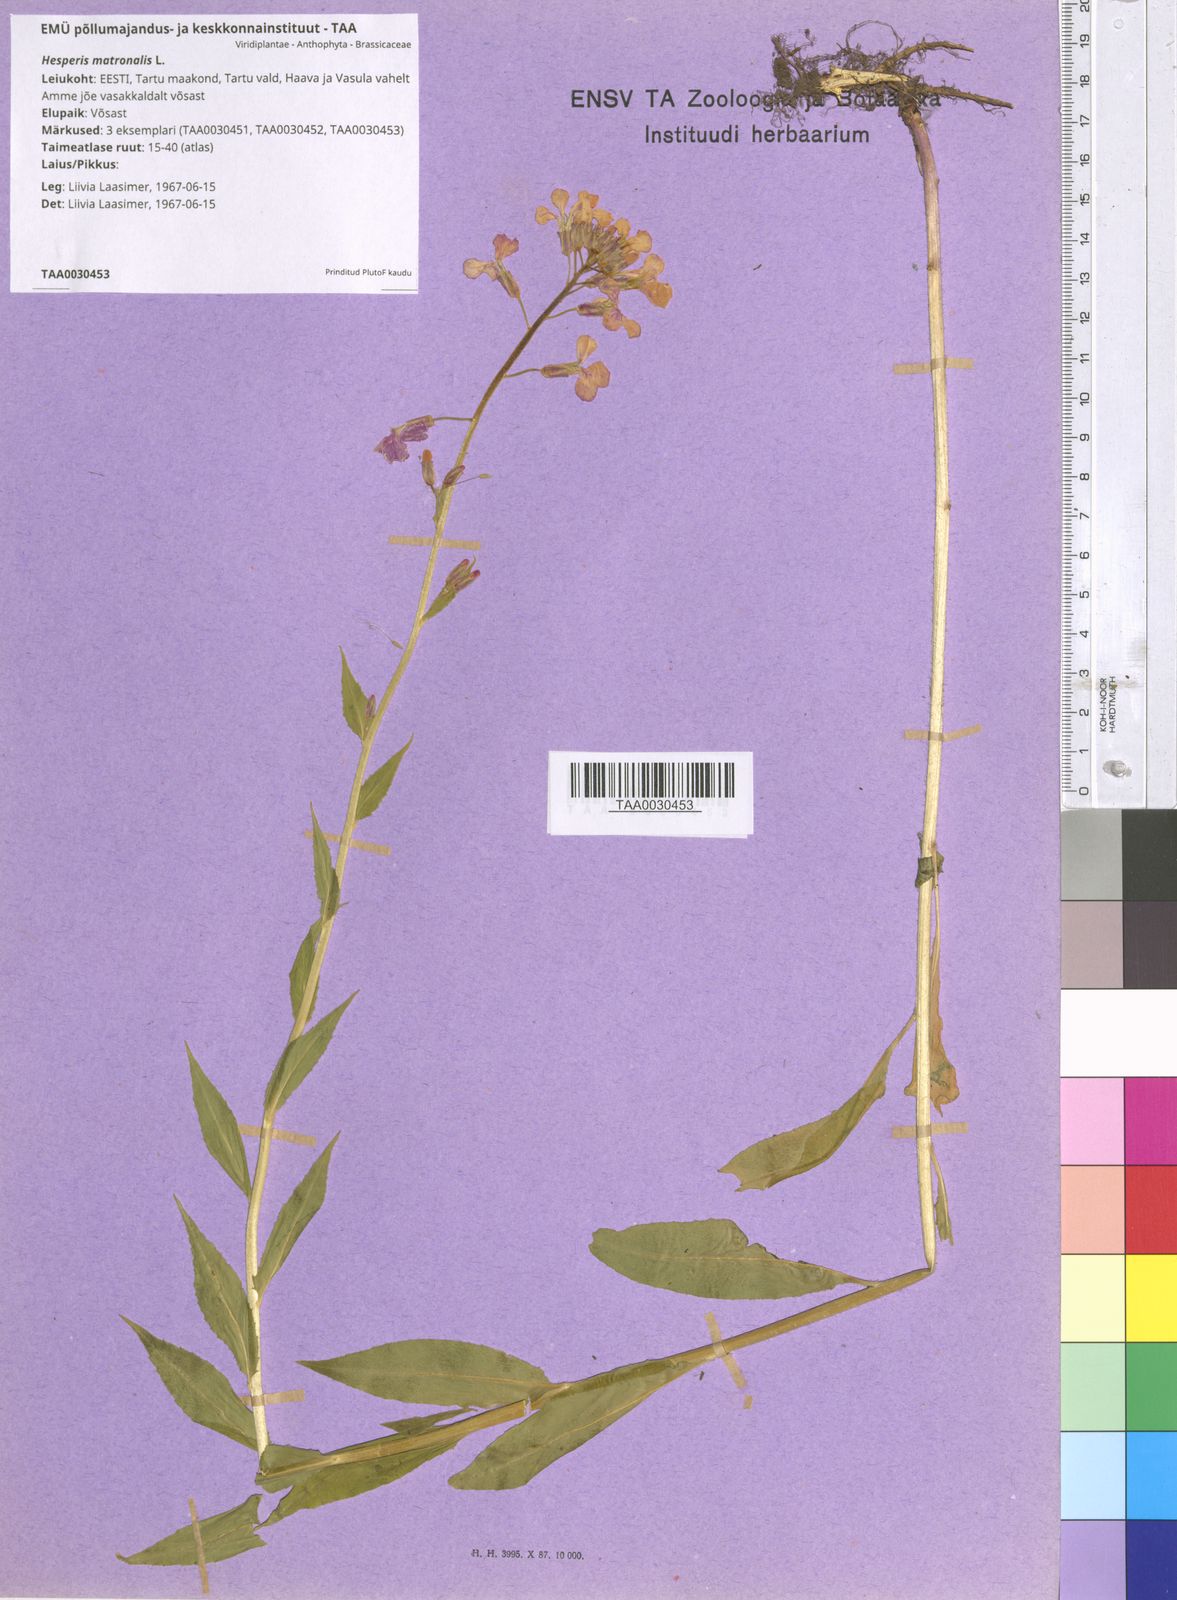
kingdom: Plantae
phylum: Tracheophyta
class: Magnoliopsida
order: Brassicales
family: Brassicaceae
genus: Hesperis
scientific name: Hesperis matronalis
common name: Dame's-violet
